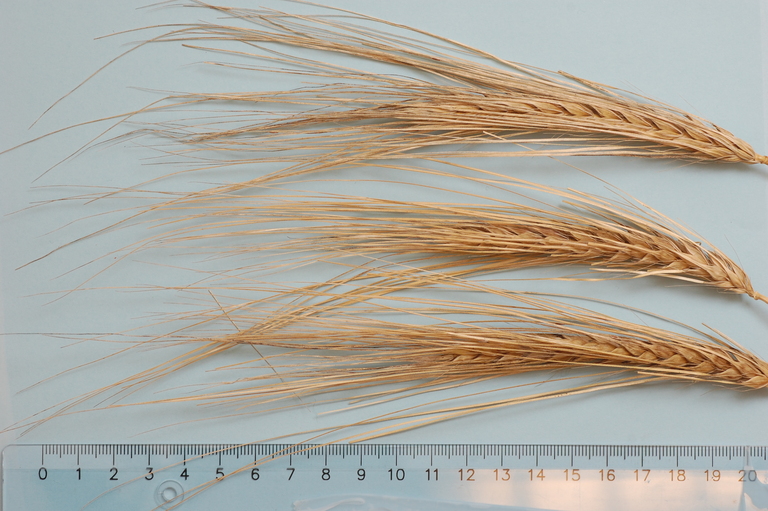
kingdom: Plantae
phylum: Tracheophyta
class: Liliopsida
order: Poales
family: Poaceae
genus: Hordeum
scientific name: Hordeum vulgare
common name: Common barley
